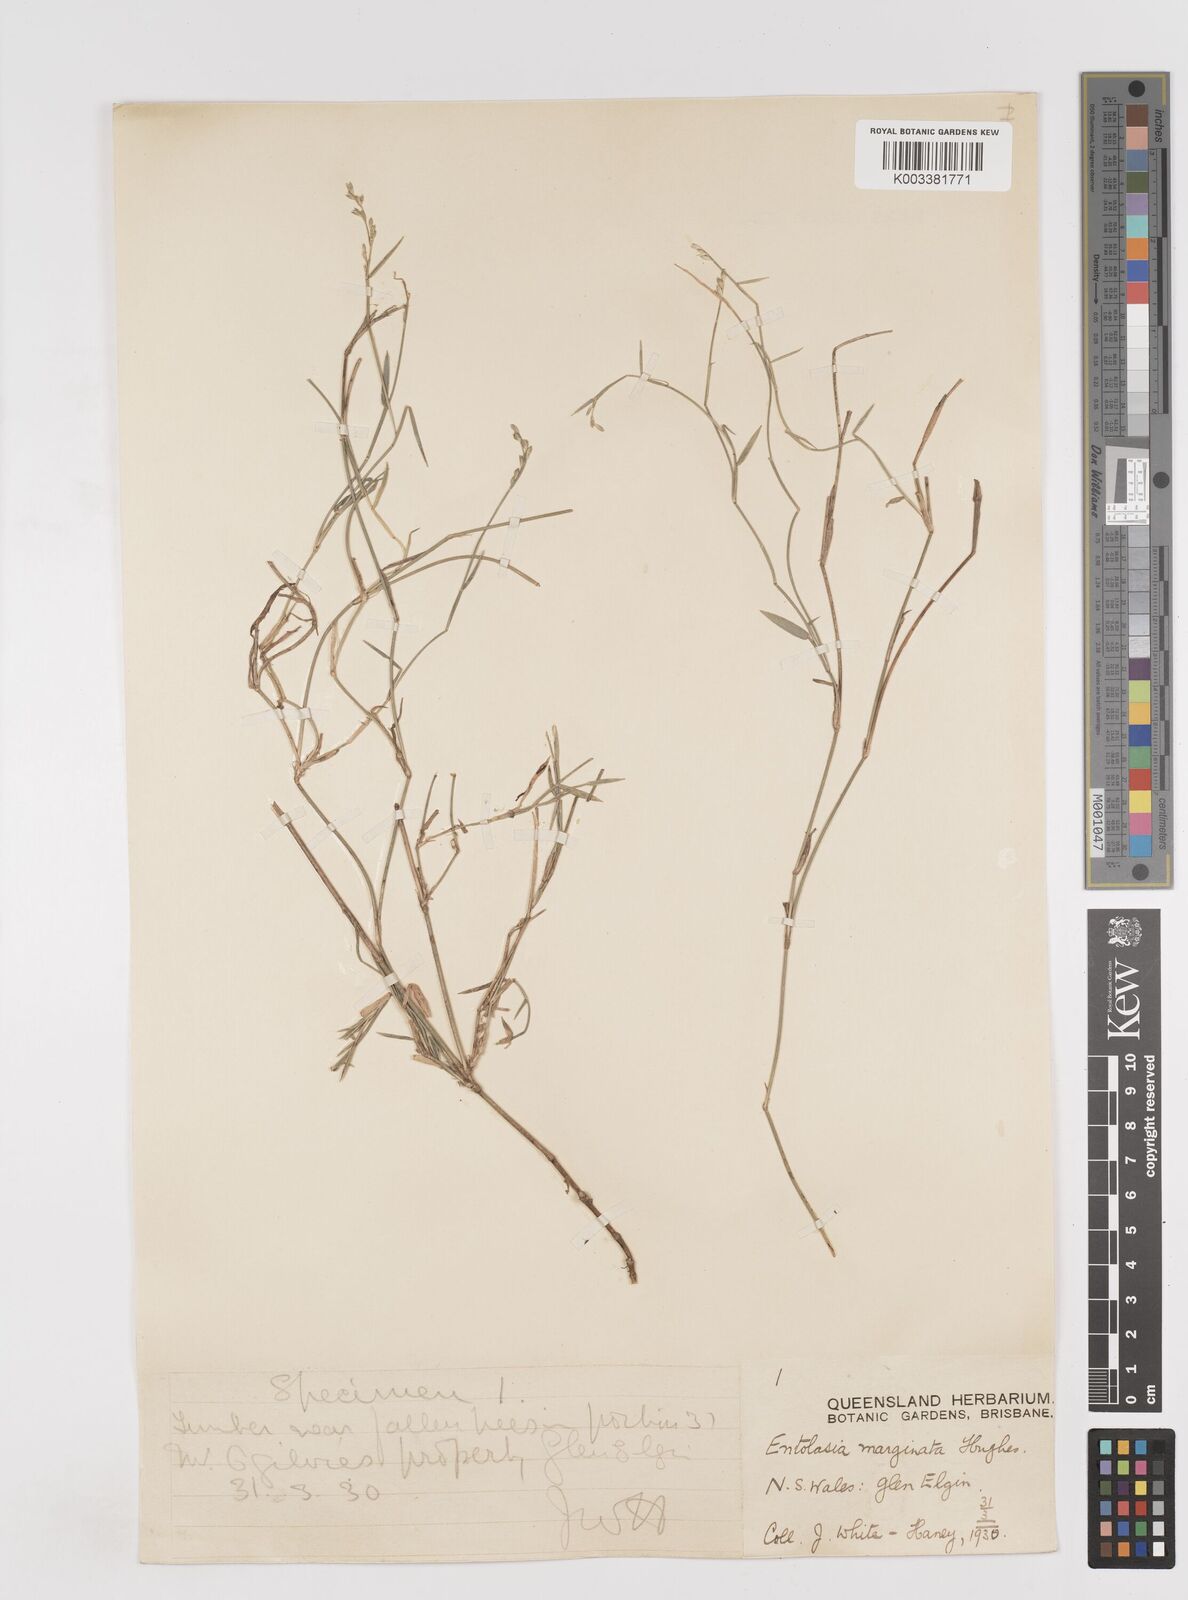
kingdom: Plantae
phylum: Tracheophyta
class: Liliopsida
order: Poales
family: Poaceae
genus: Entolasia
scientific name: Entolasia stricta
